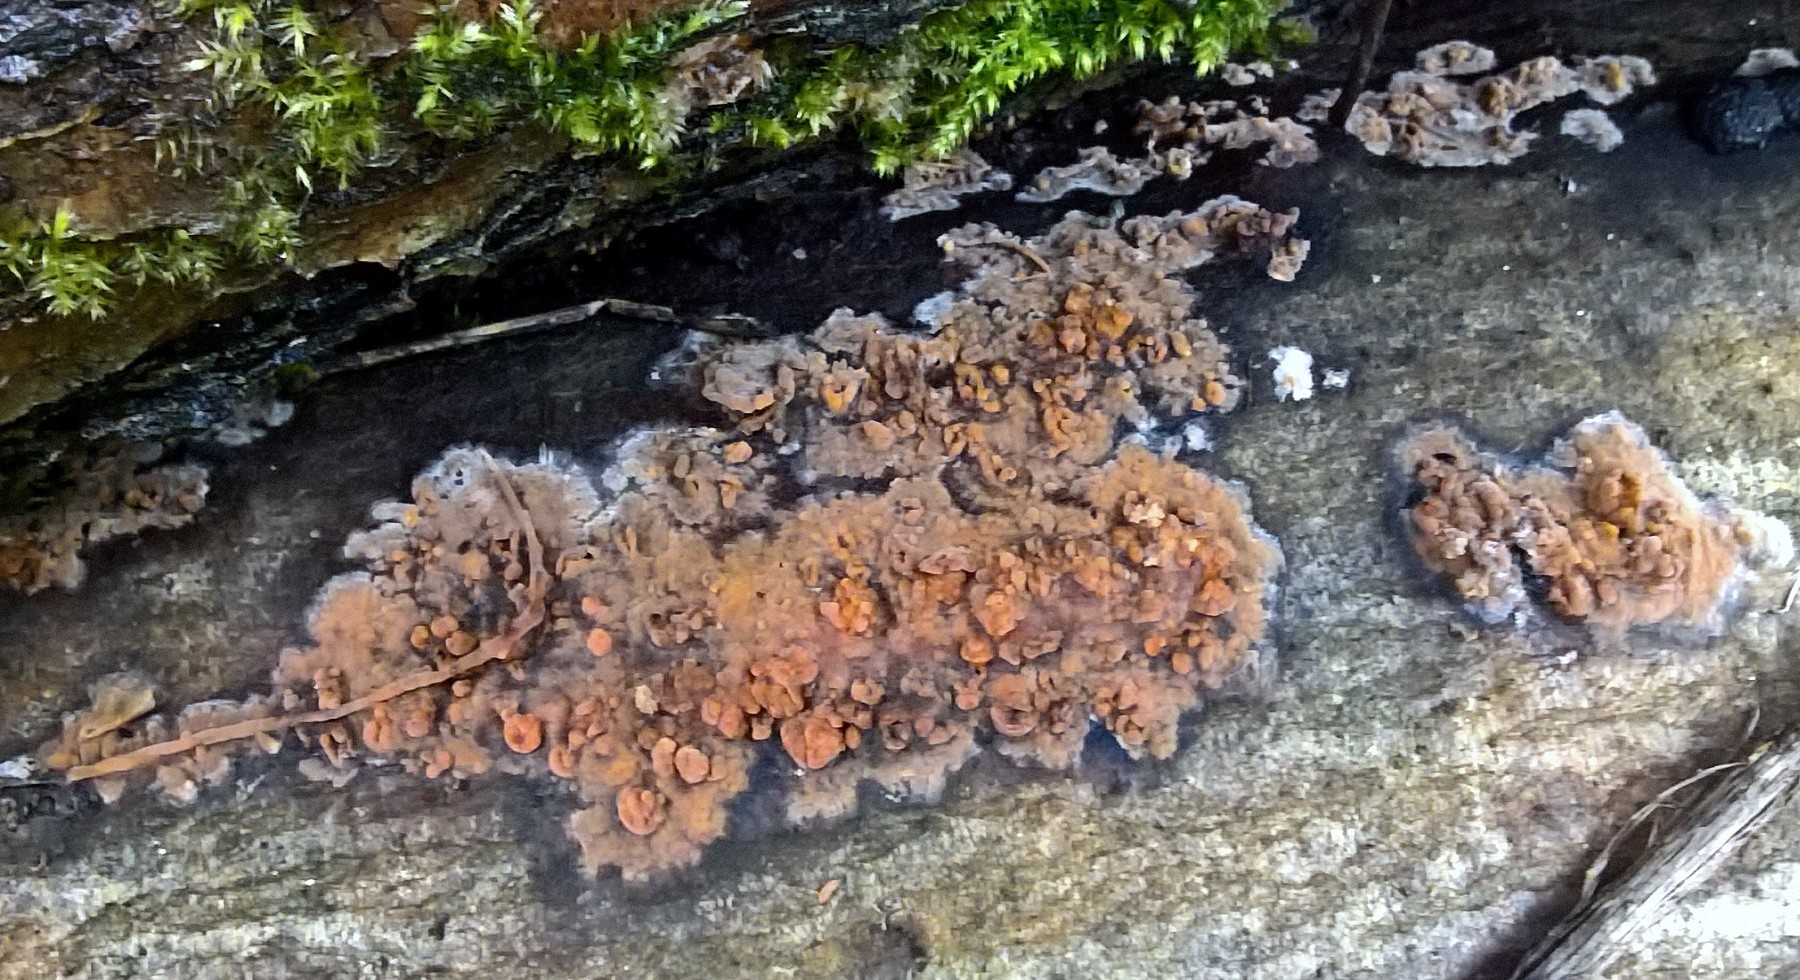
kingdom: Fungi
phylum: Basidiomycota
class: Agaricomycetes
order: Polyporales
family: Meruliaceae
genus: Phlebia
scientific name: Phlebia radiata
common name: stråle-åresvamp
